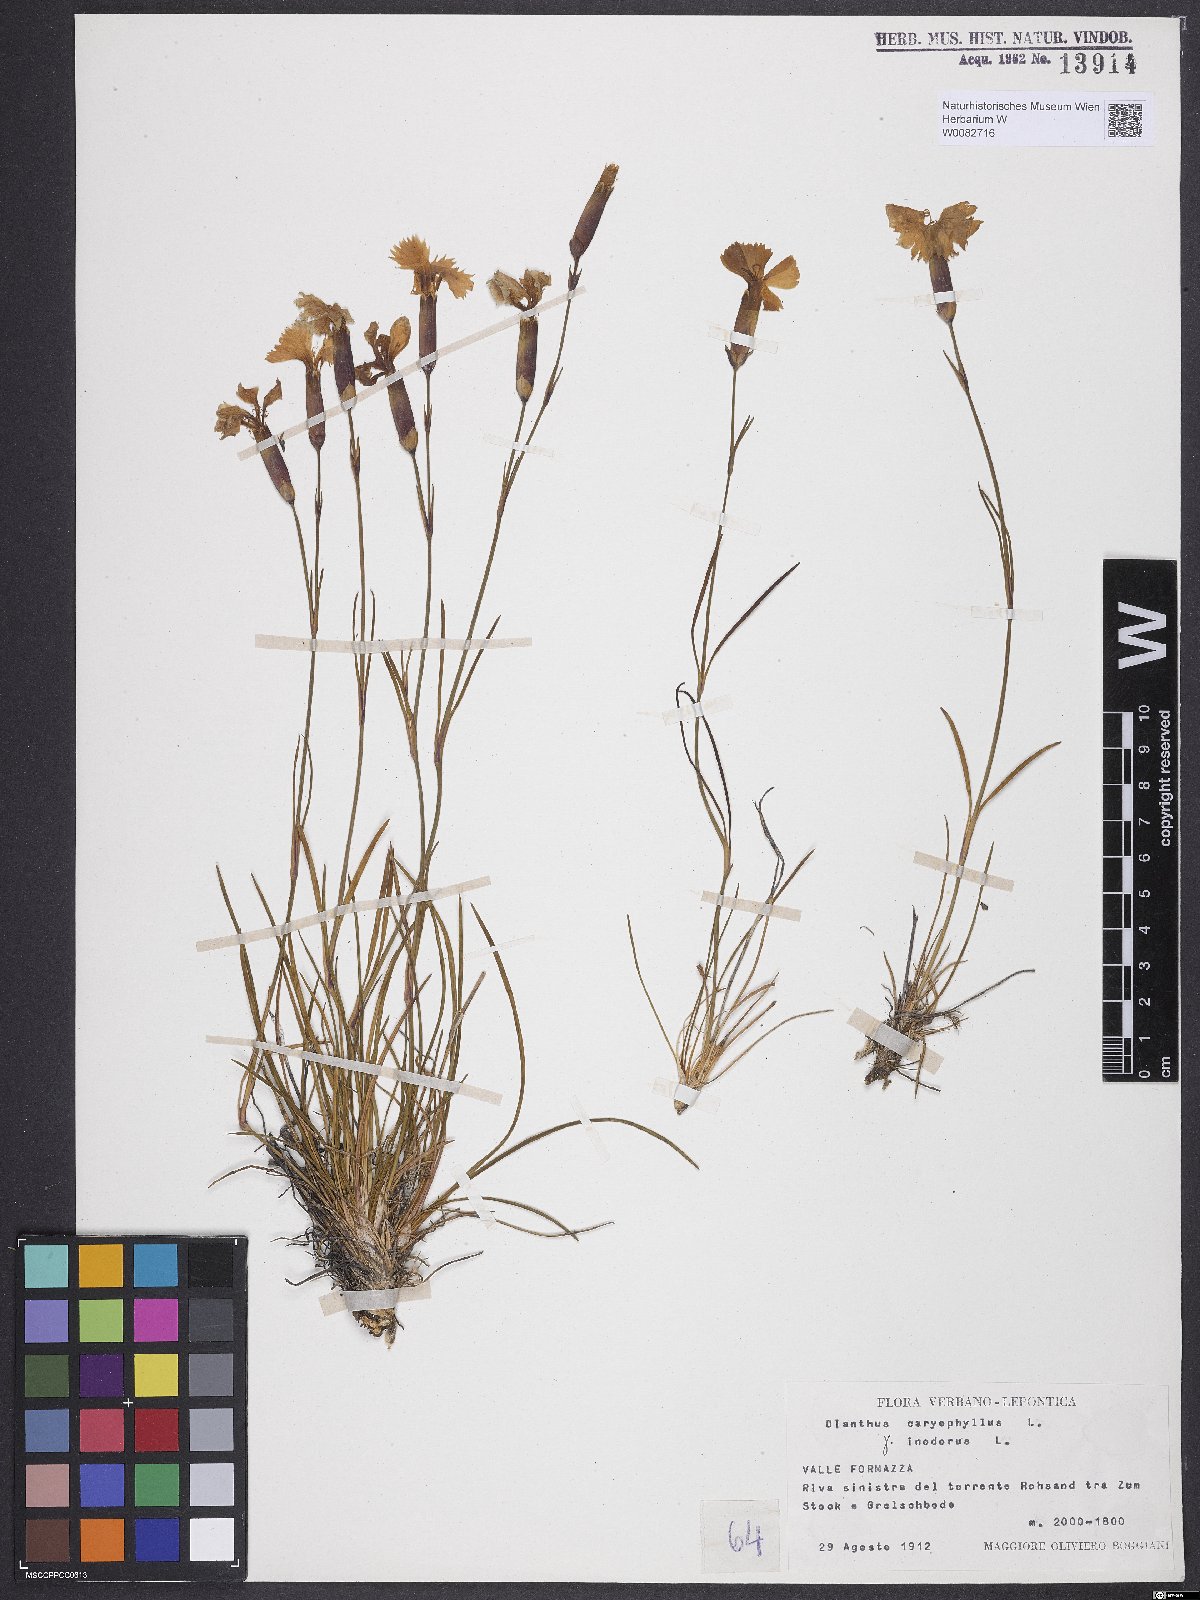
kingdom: Plantae
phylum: Tracheophyta
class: Magnoliopsida
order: Caryophyllales
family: Caryophyllaceae
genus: Dianthus
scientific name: Dianthus caryophyllus
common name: Clove pink
